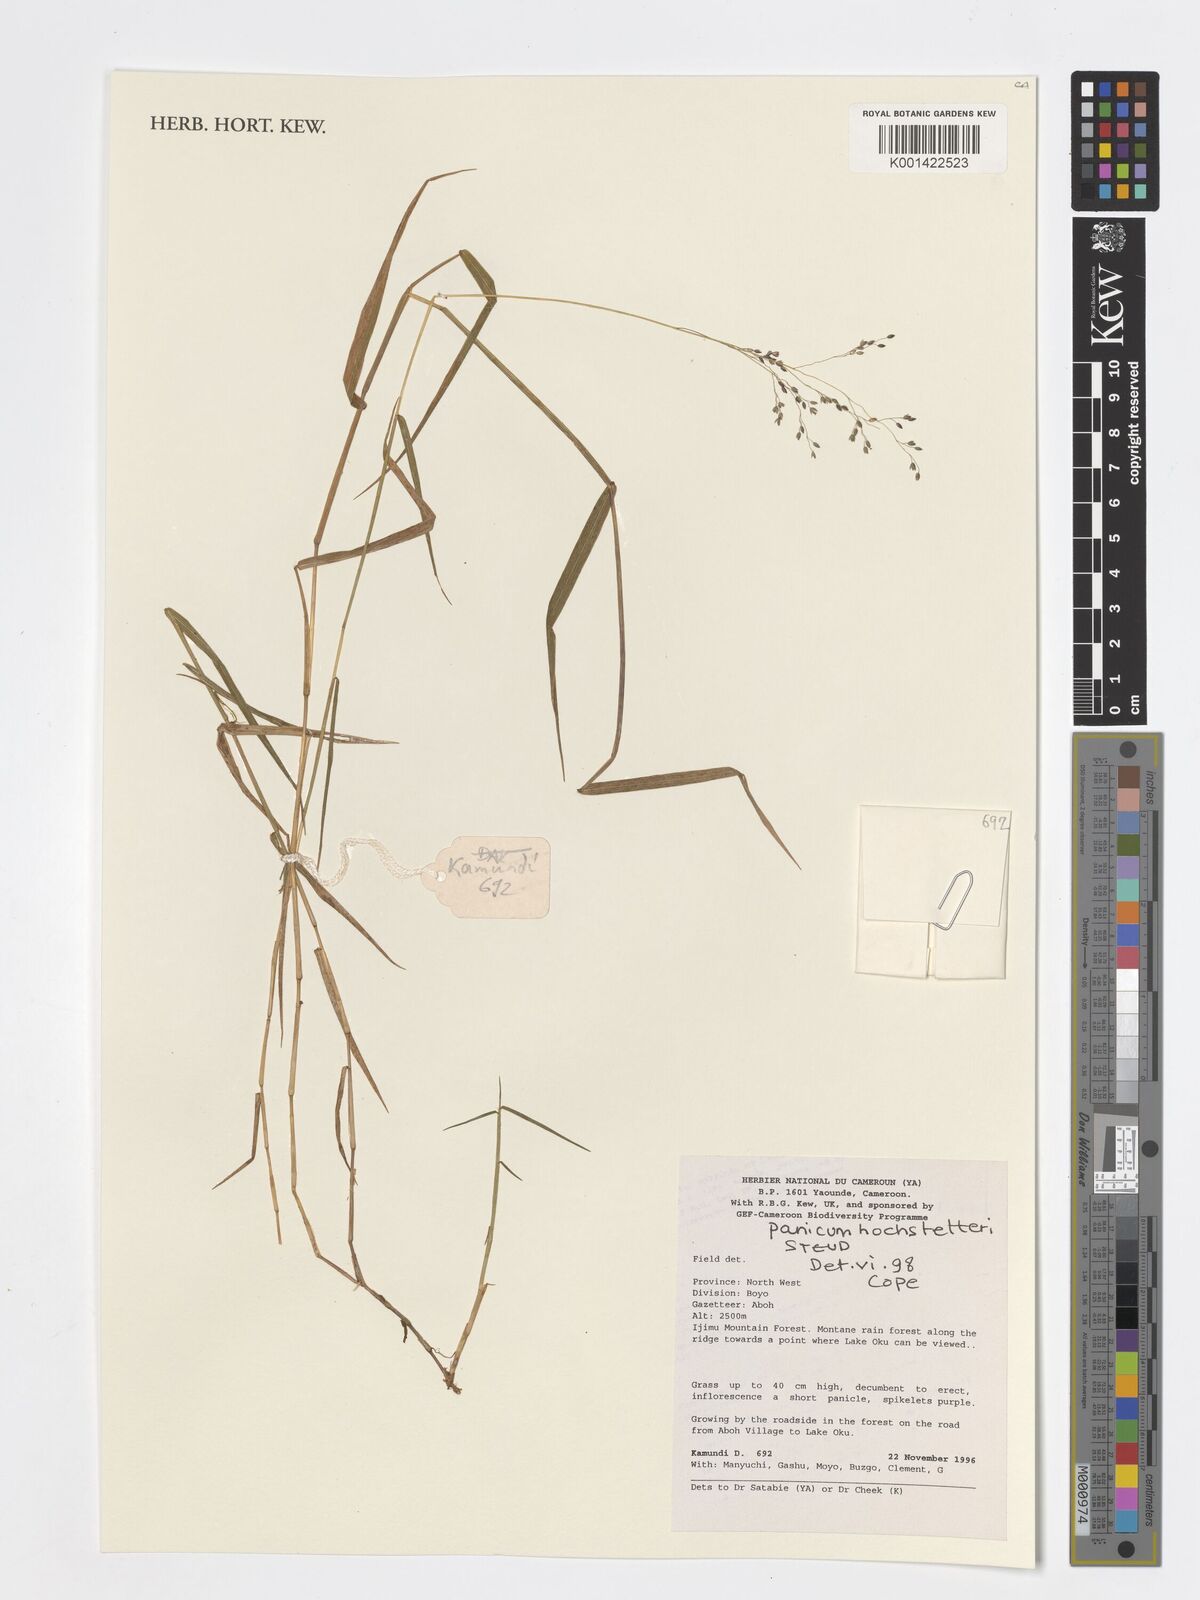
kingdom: Plantae
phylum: Tracheophyta
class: Liliopsida
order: Poales
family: Poaceae
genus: Panicum
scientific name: Panicum hochstetteri
